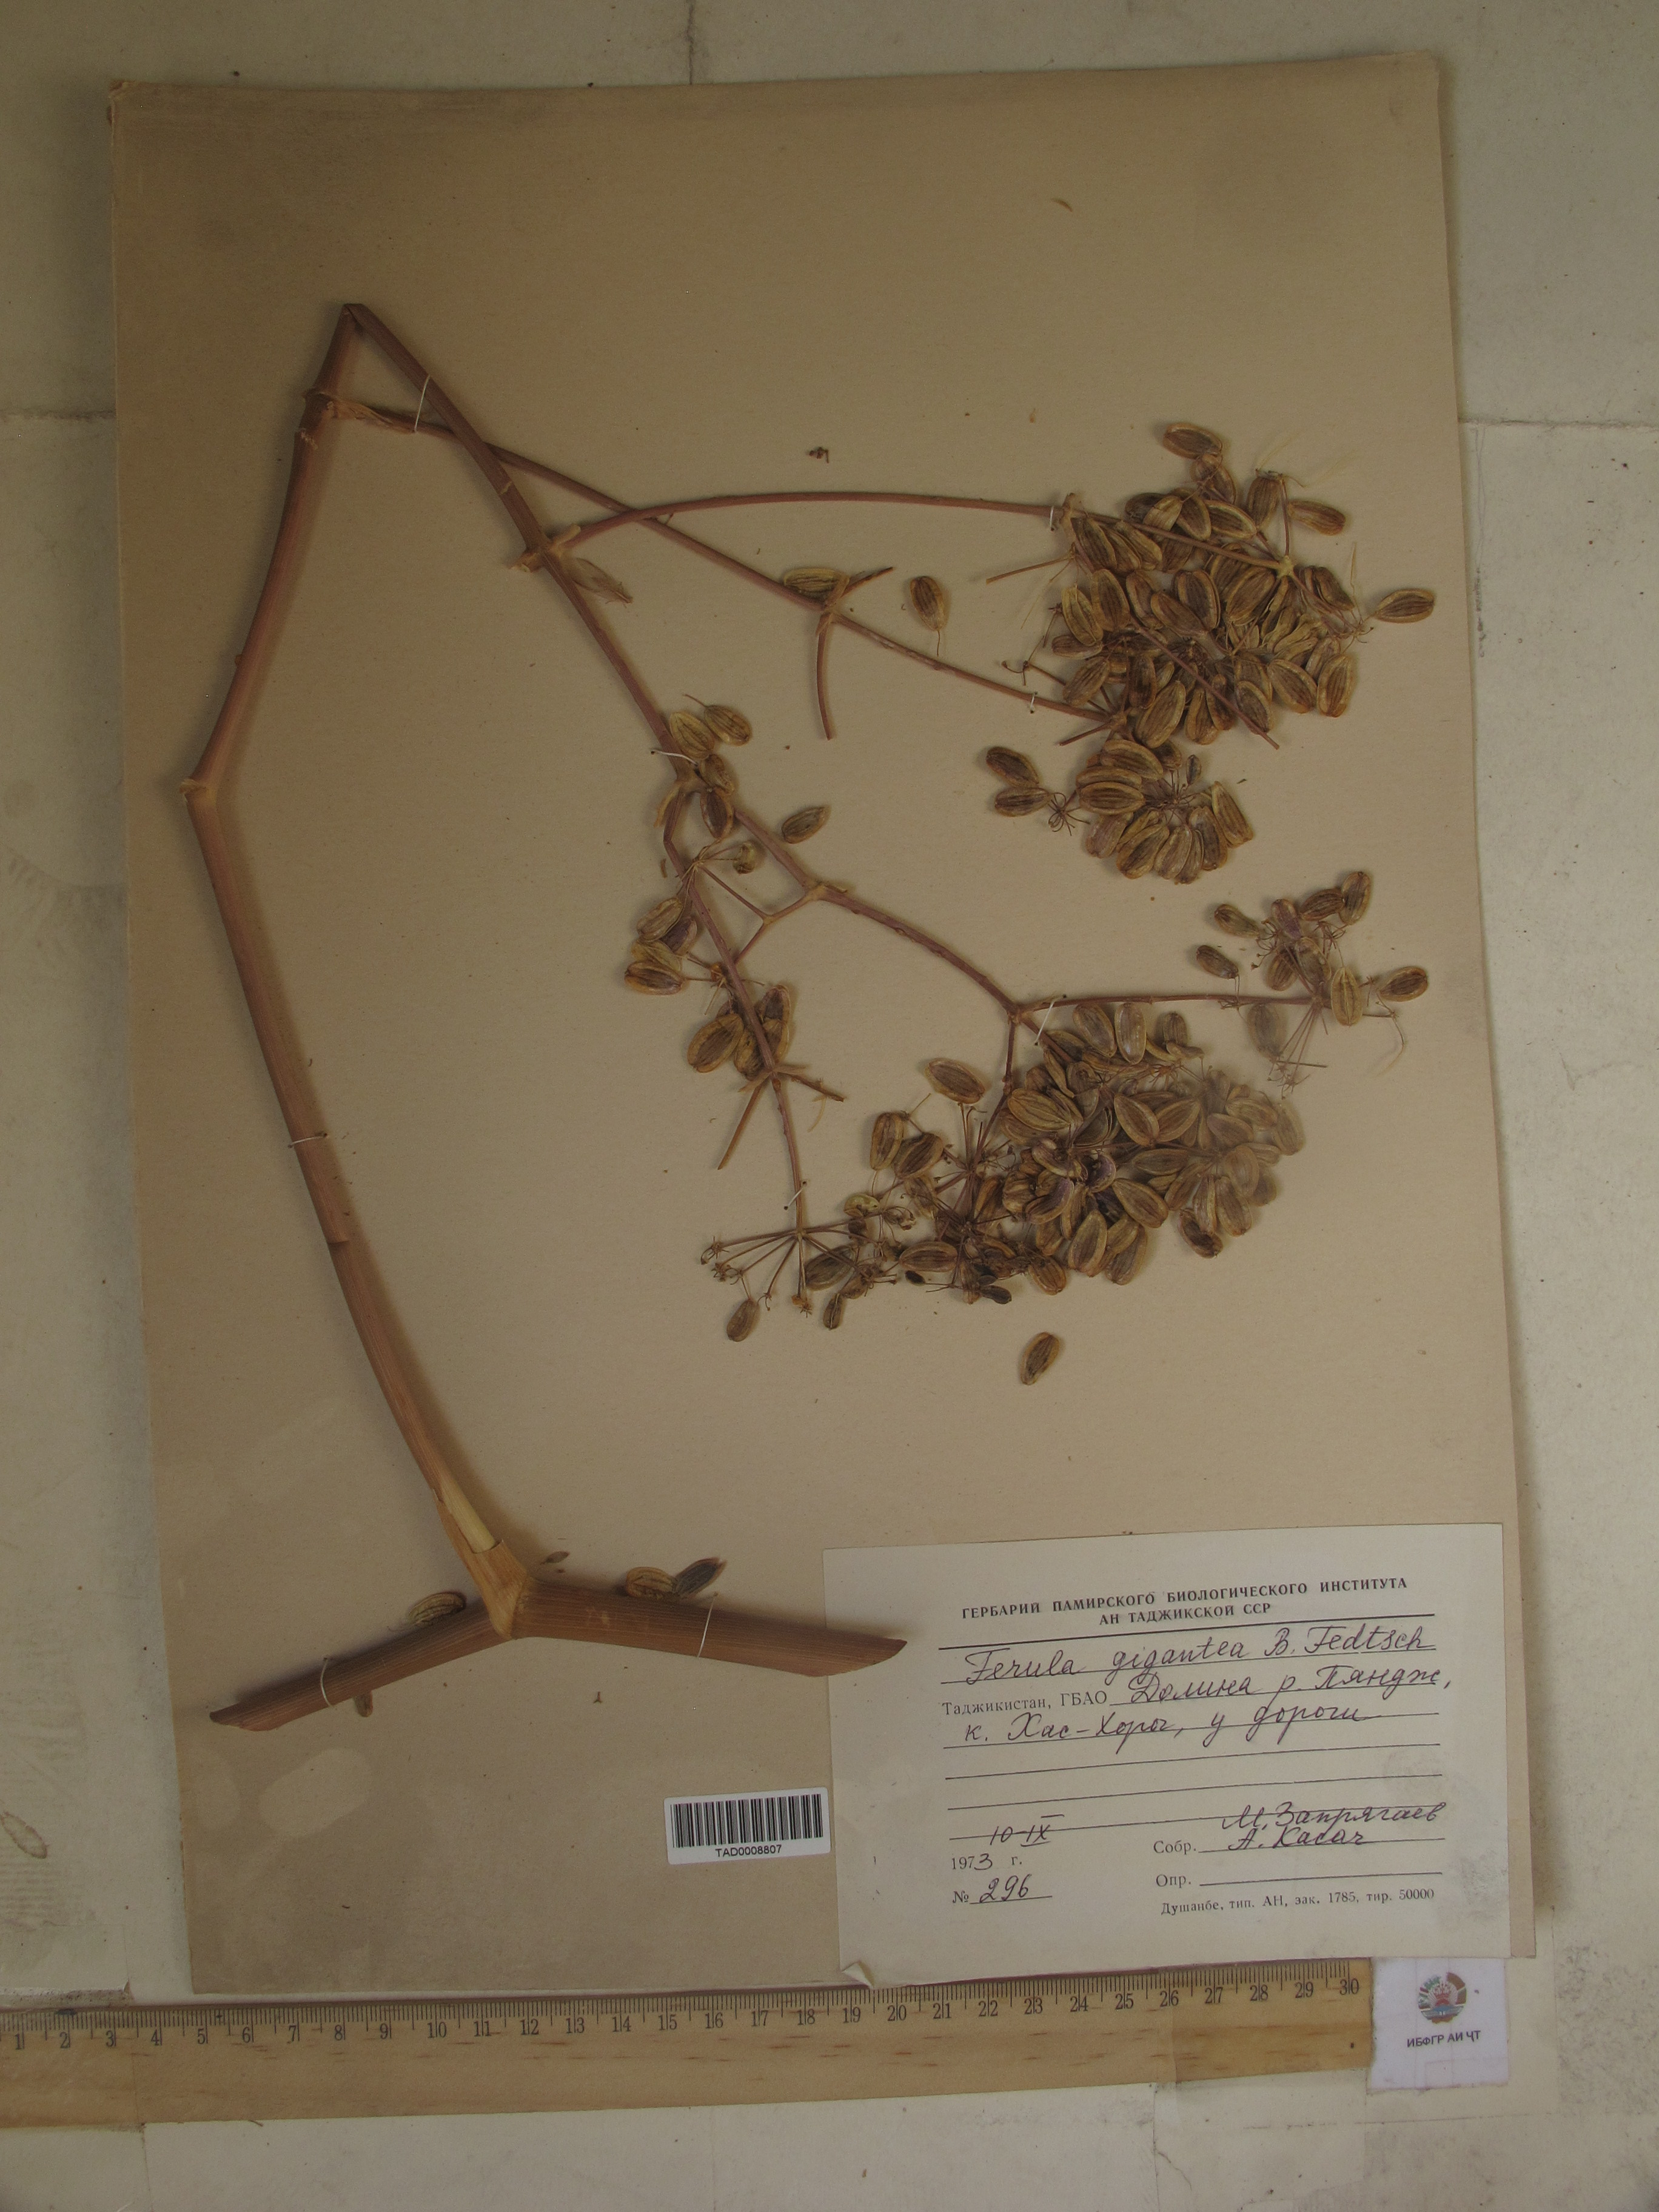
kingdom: Plantae
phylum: Tracheophyta
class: Magnoliopsida
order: Apiales
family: Apiaceae
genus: Ferula
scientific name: Ferula gigantea
